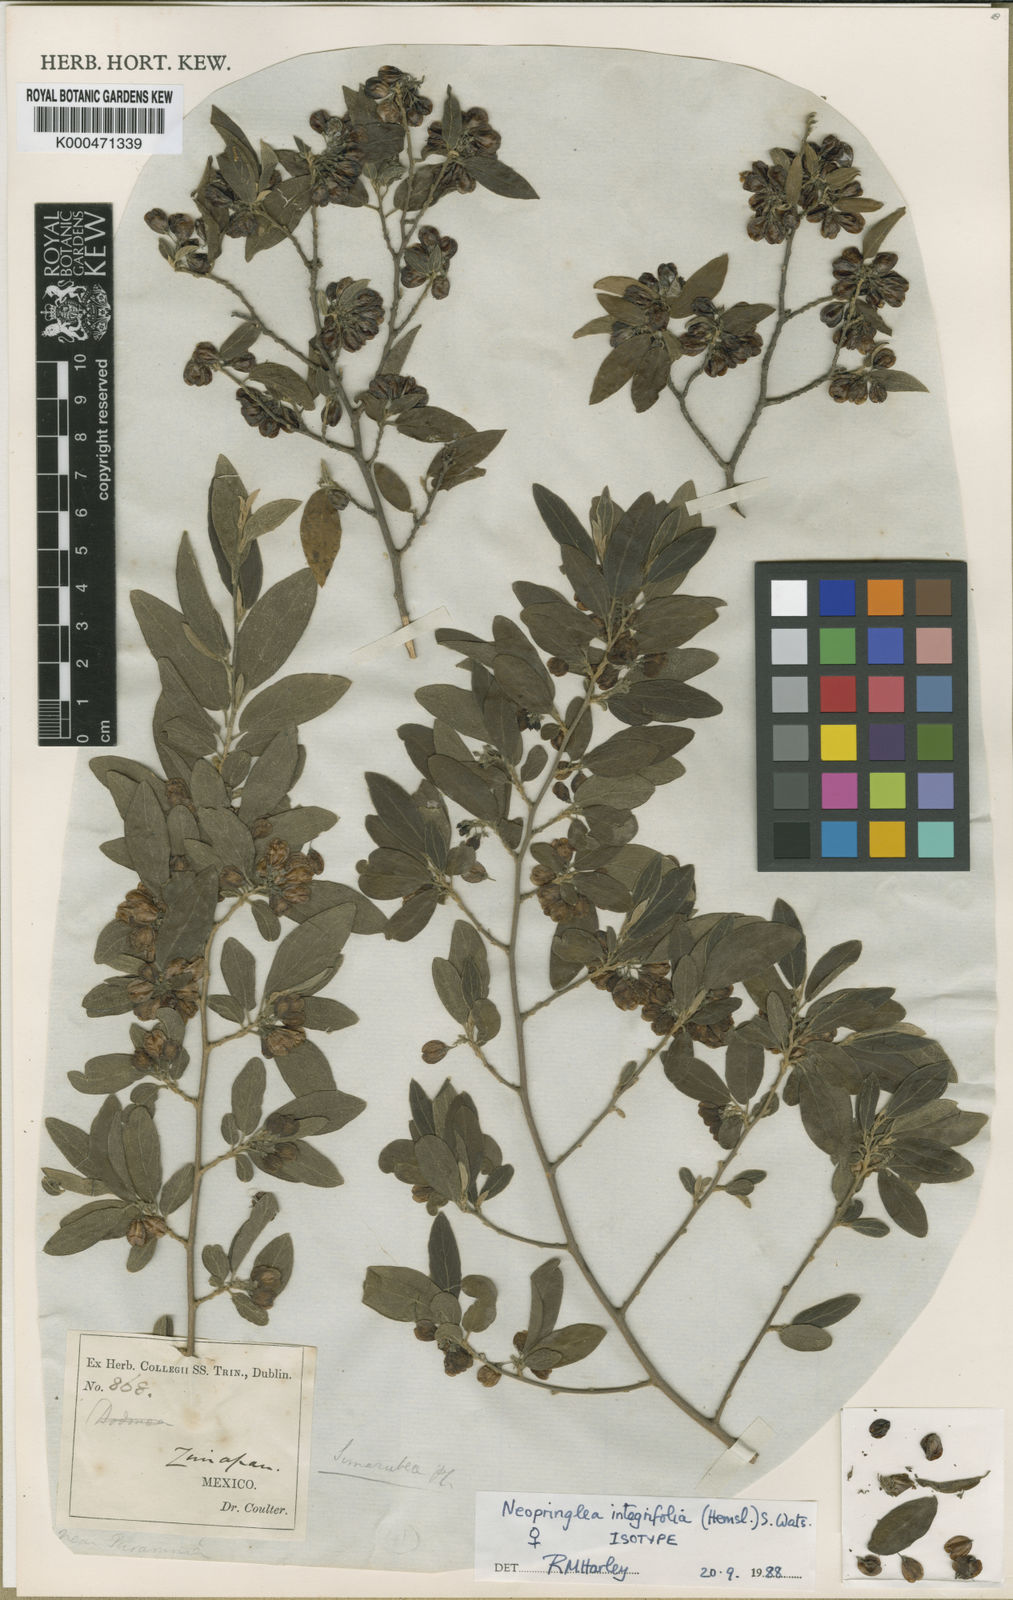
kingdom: Plantae
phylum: Tracheophyta
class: Magnoliopsida
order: Malpighiales
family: Salicaceae
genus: Neopringlea
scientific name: Neopringlea integrifolia
